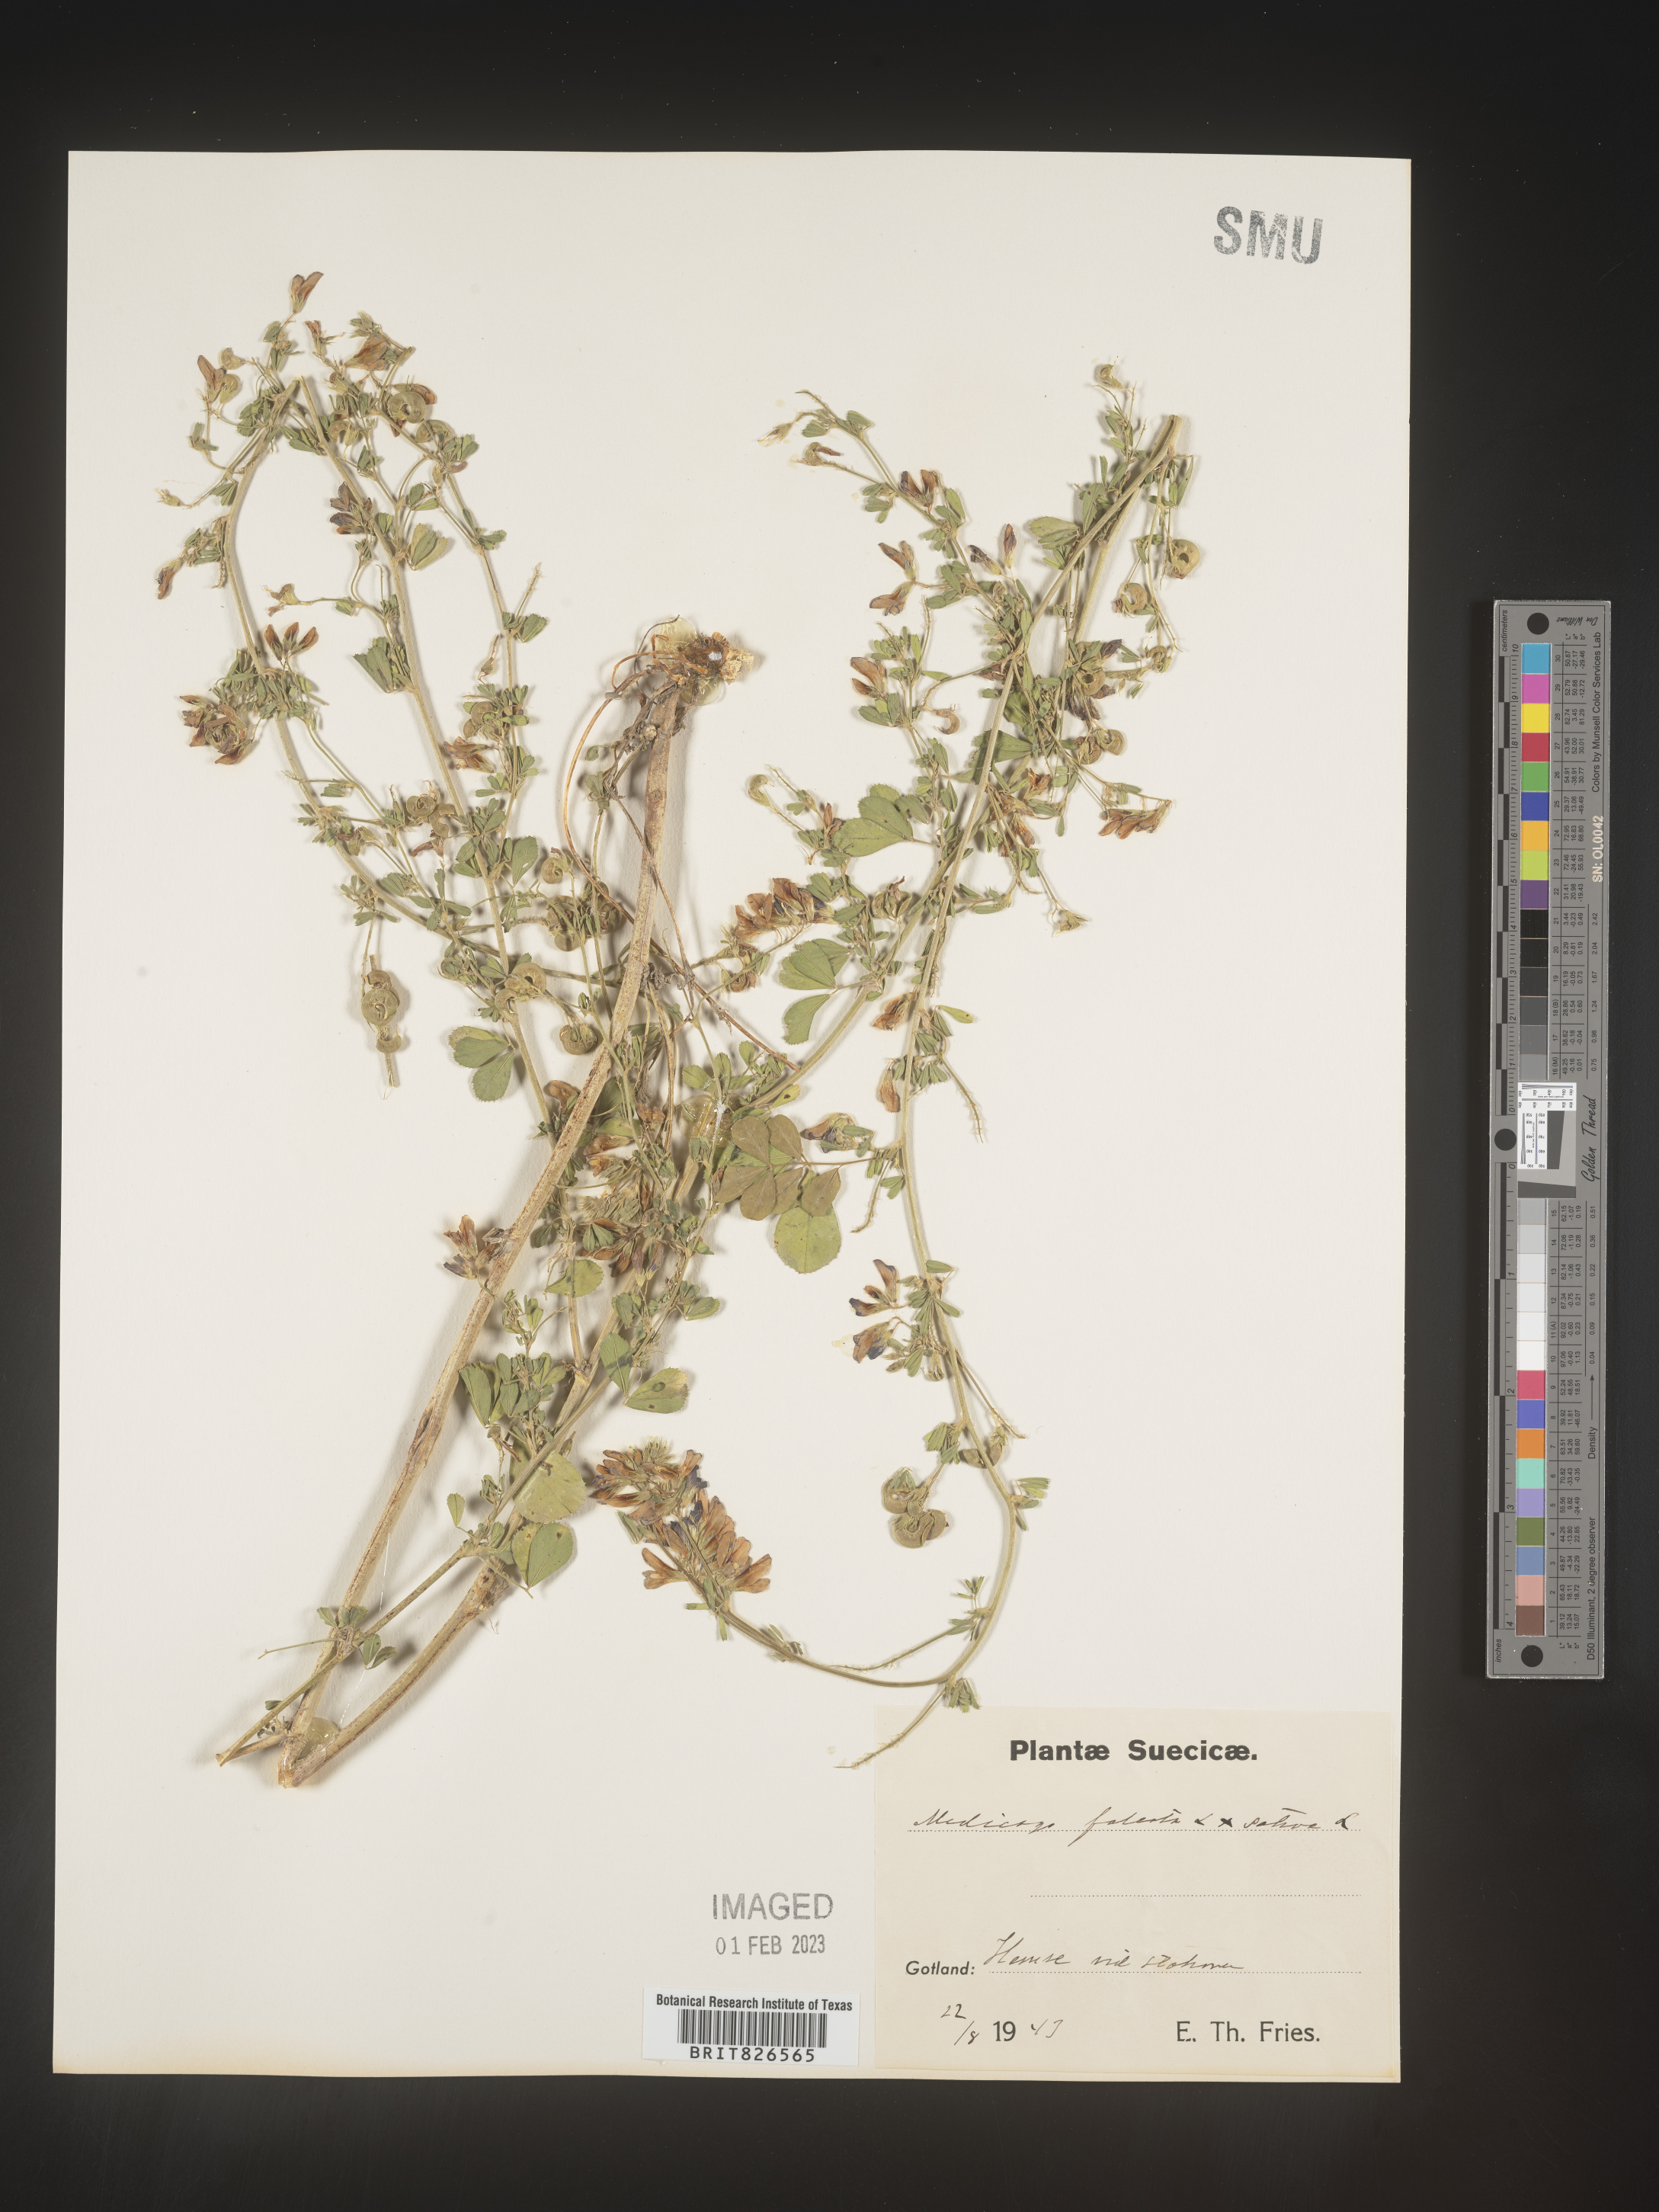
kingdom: Plantae
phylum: Tracheophyta
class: Magnoliopsida
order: Fabales
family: Fabaceae
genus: Medicago
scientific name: Medicago
